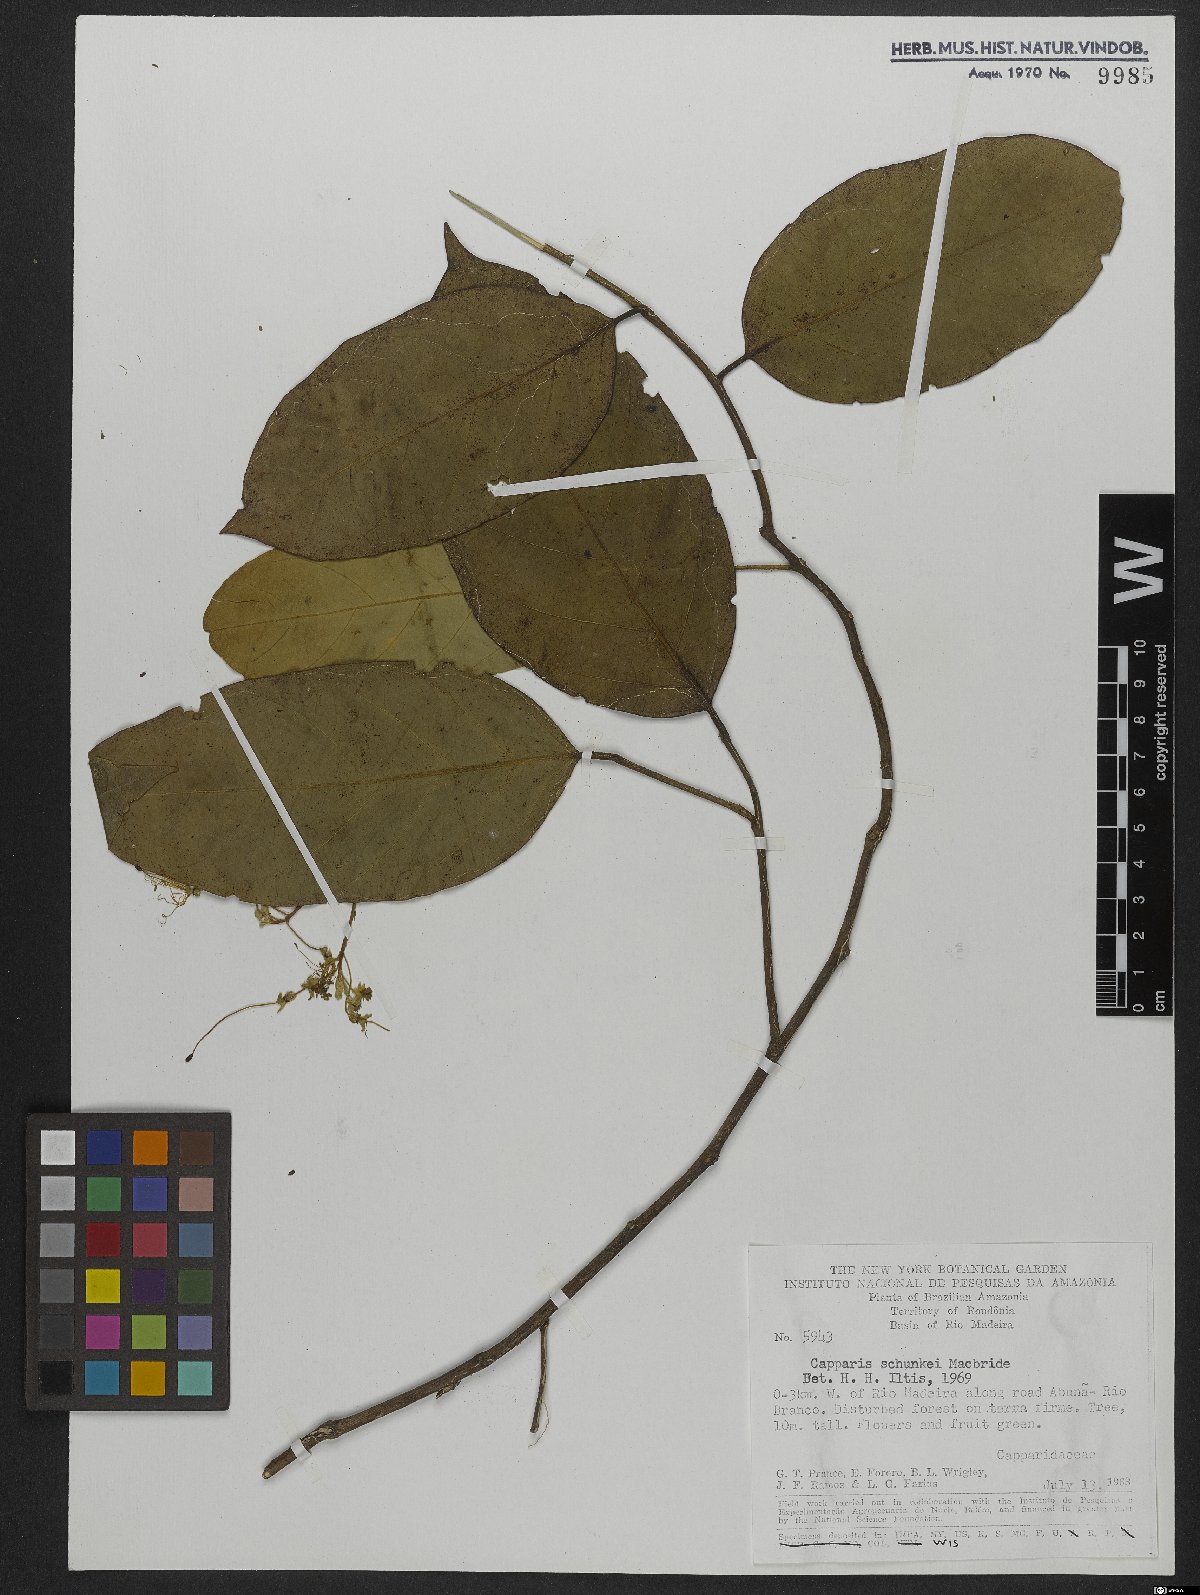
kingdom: Plantae
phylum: Tracheophyta
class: Magnoliopsida
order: Brassicales
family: Capparaceae
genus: Preslianthus
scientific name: Preslianthus detonsus
